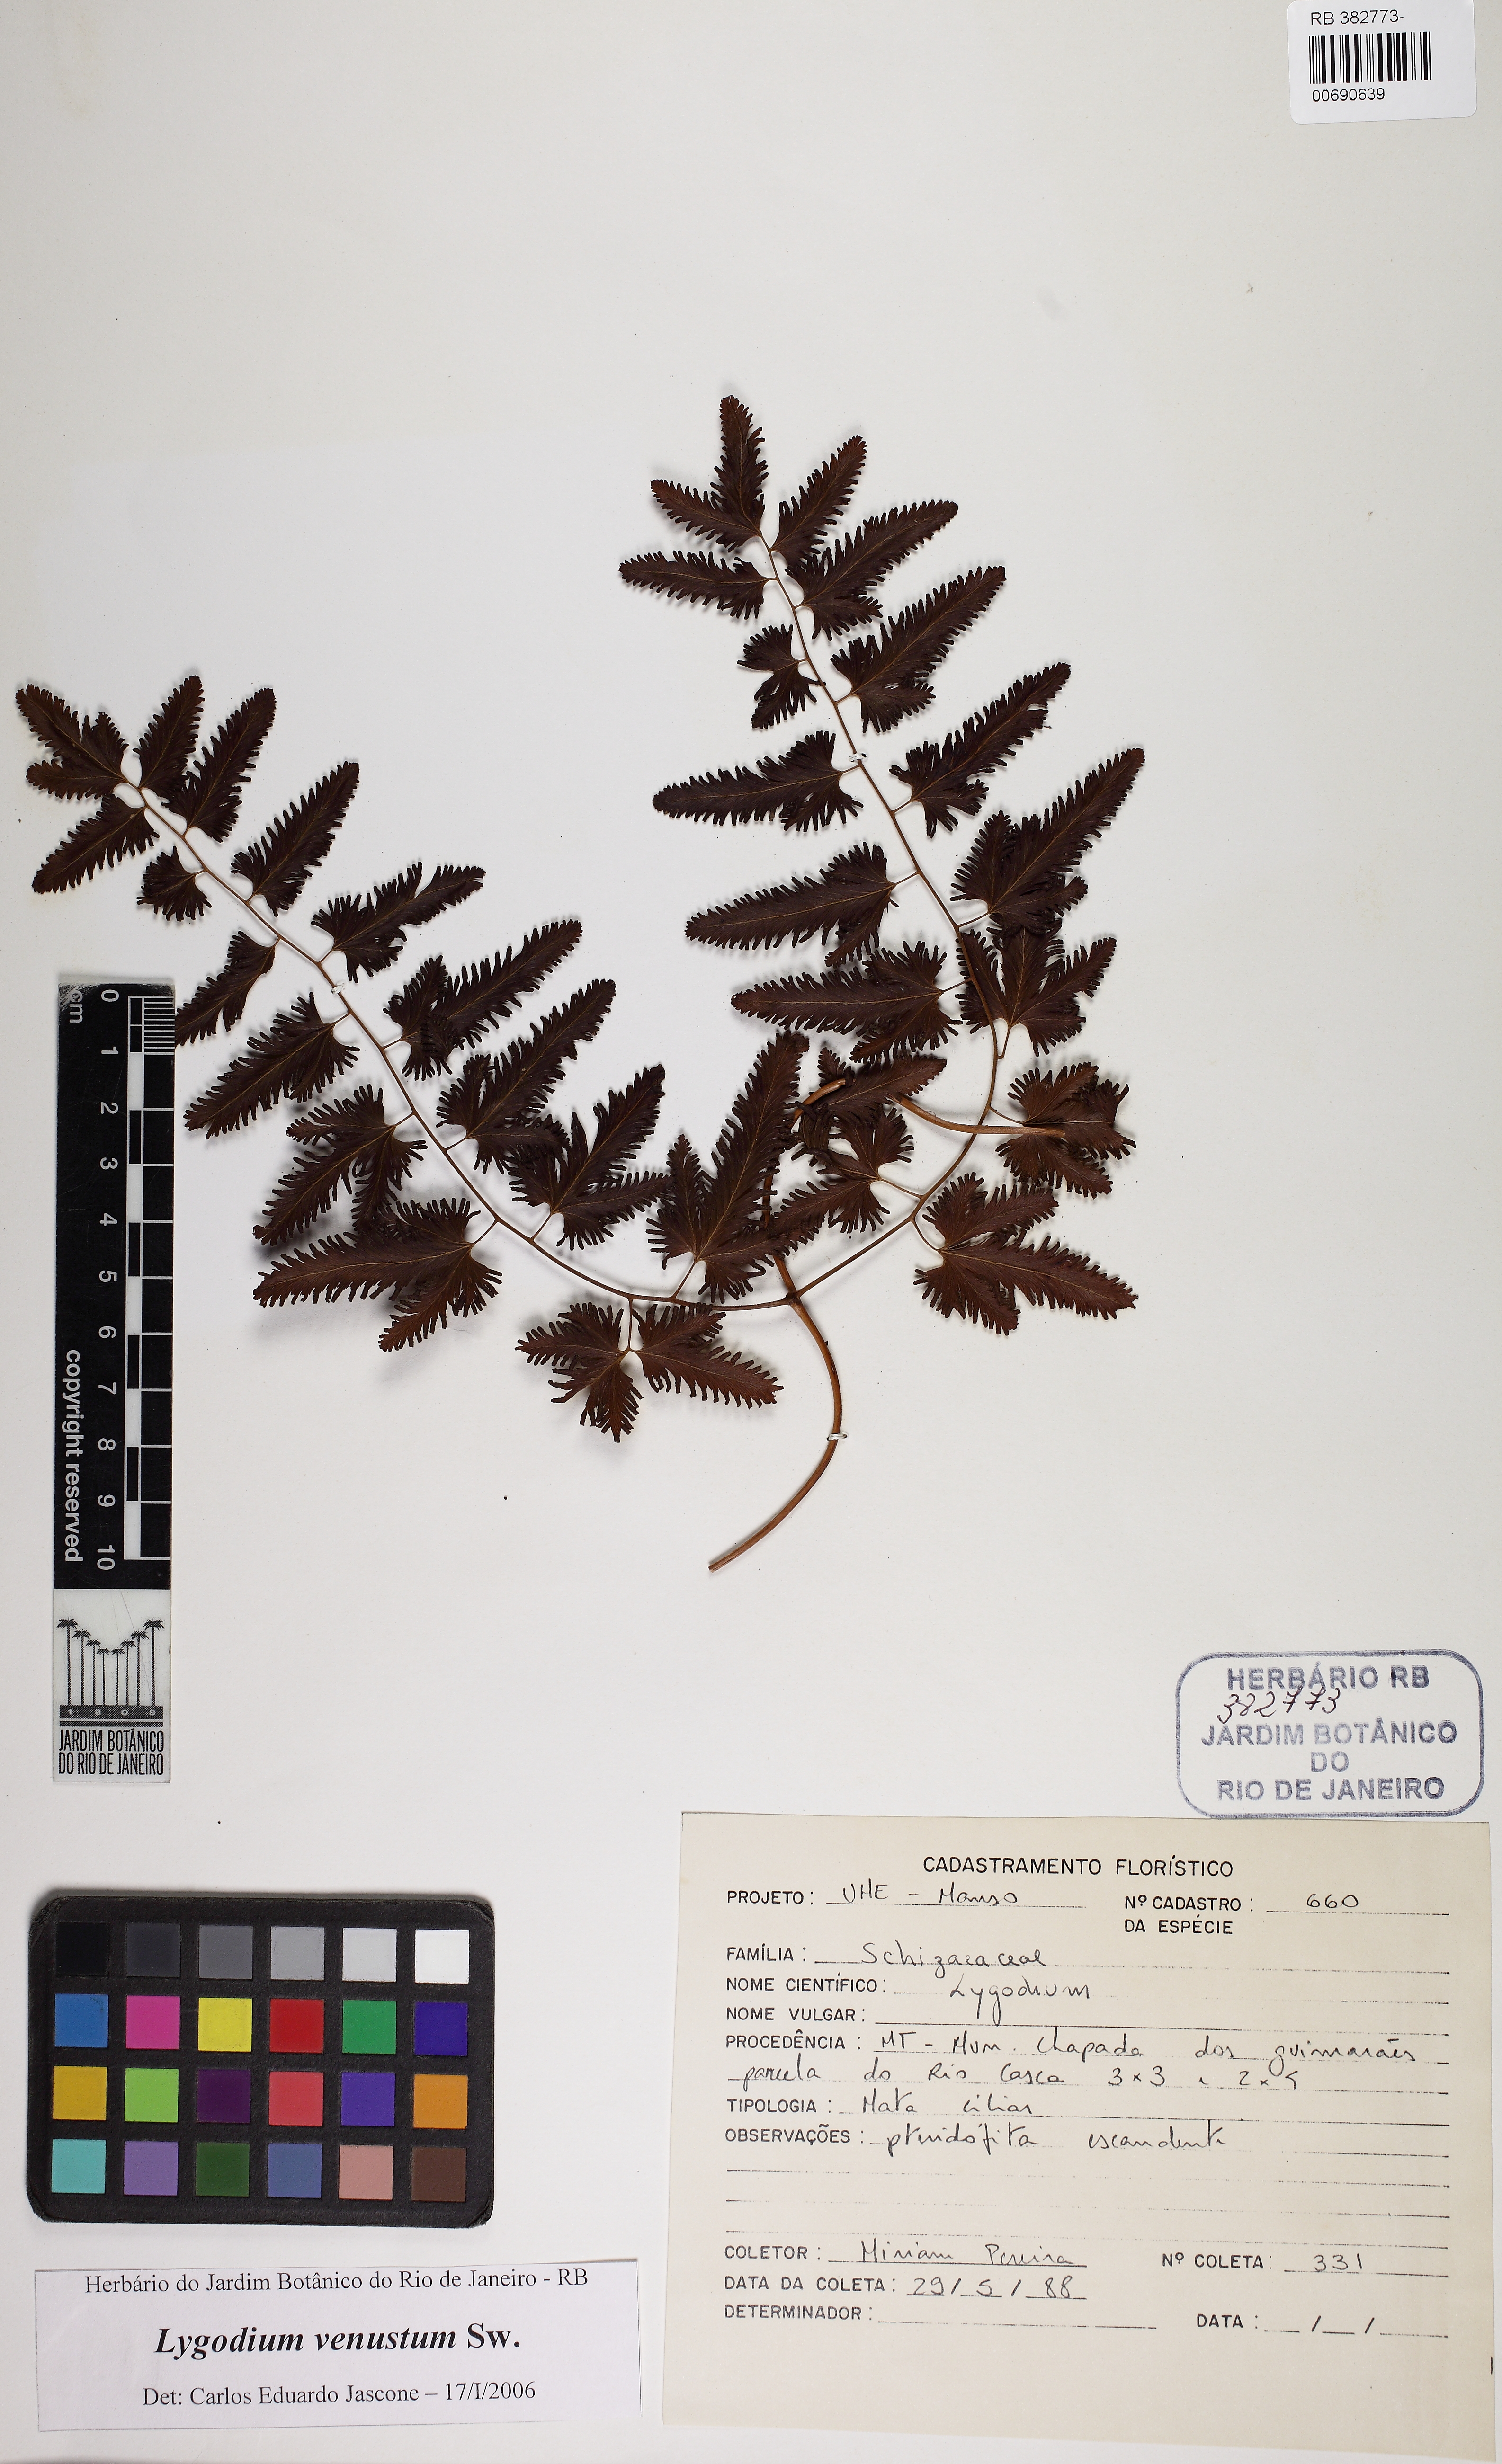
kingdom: Plantae
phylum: Tracheophyta
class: Polypodiopsida
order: Schizaeales
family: Lygodiaceae
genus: Lygodium
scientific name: Lygodium venustum
